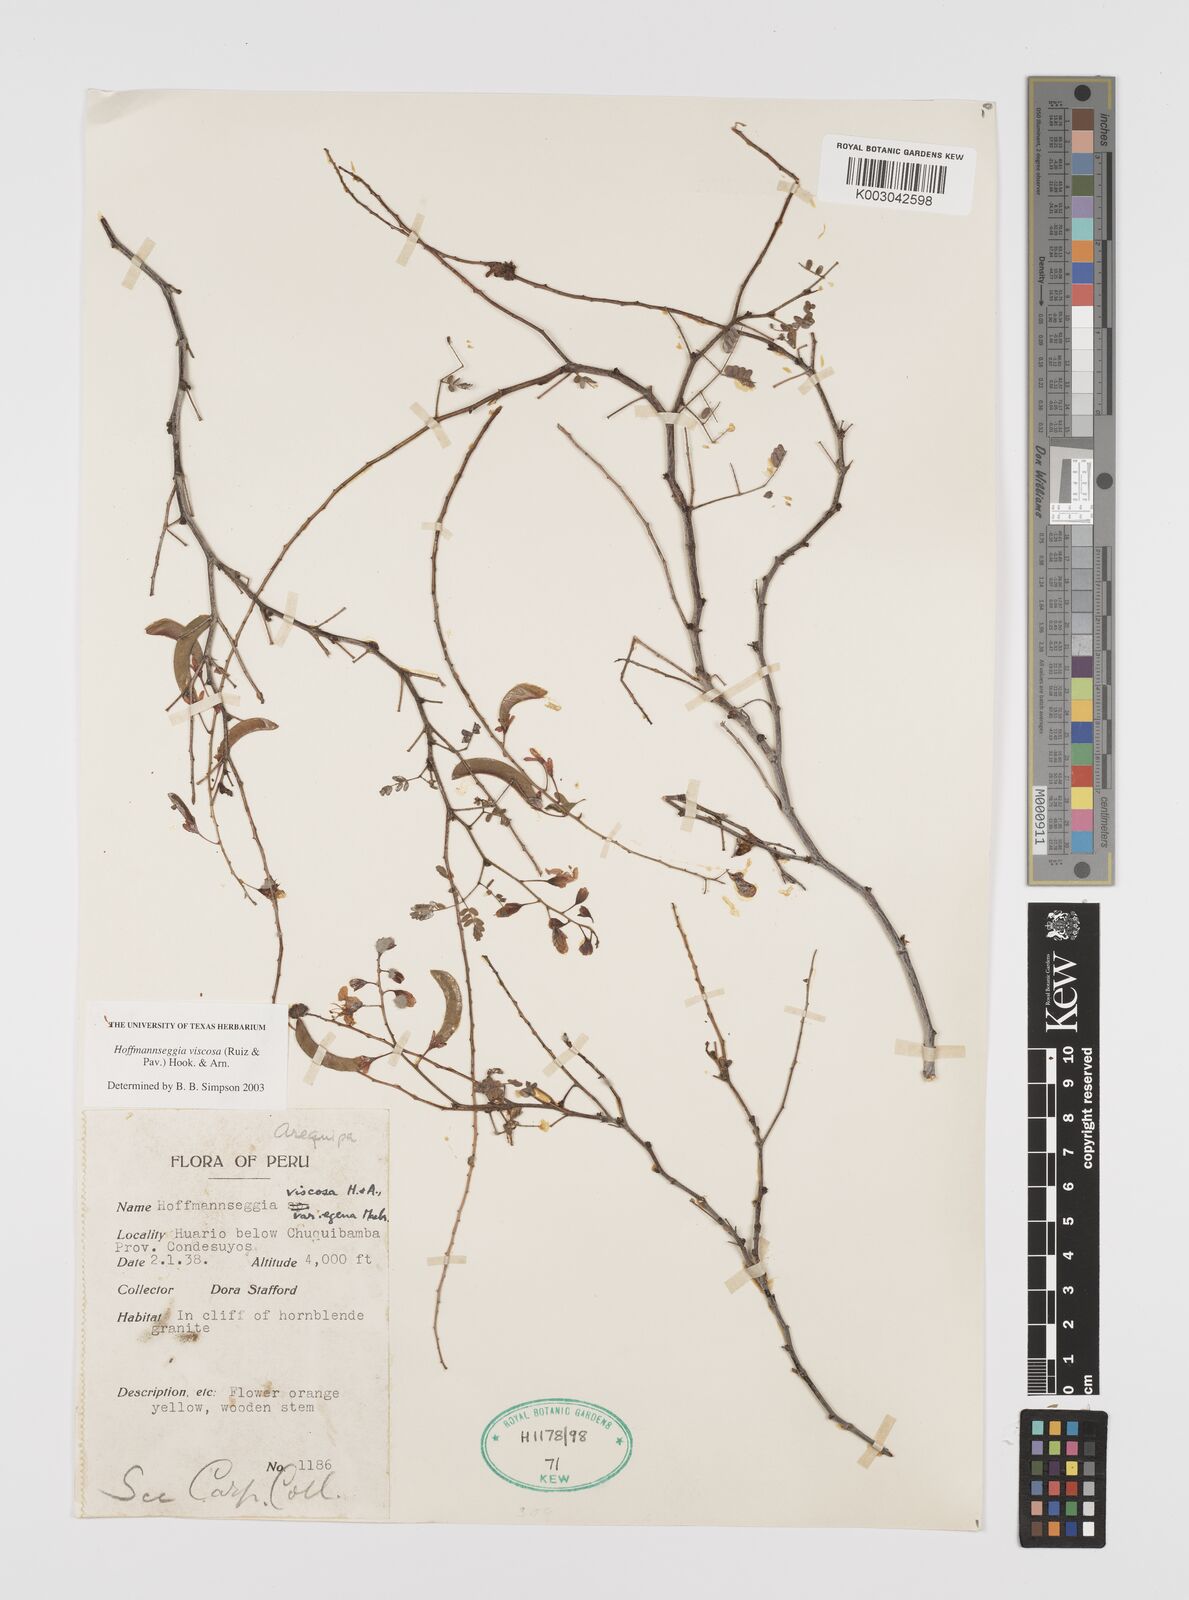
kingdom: Plantae
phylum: Tracheophyta
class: Magnoliopsida
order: Fabales
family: Fabaceae
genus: Hoffmannseggia
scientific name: Hoffmannseggia viscosa
